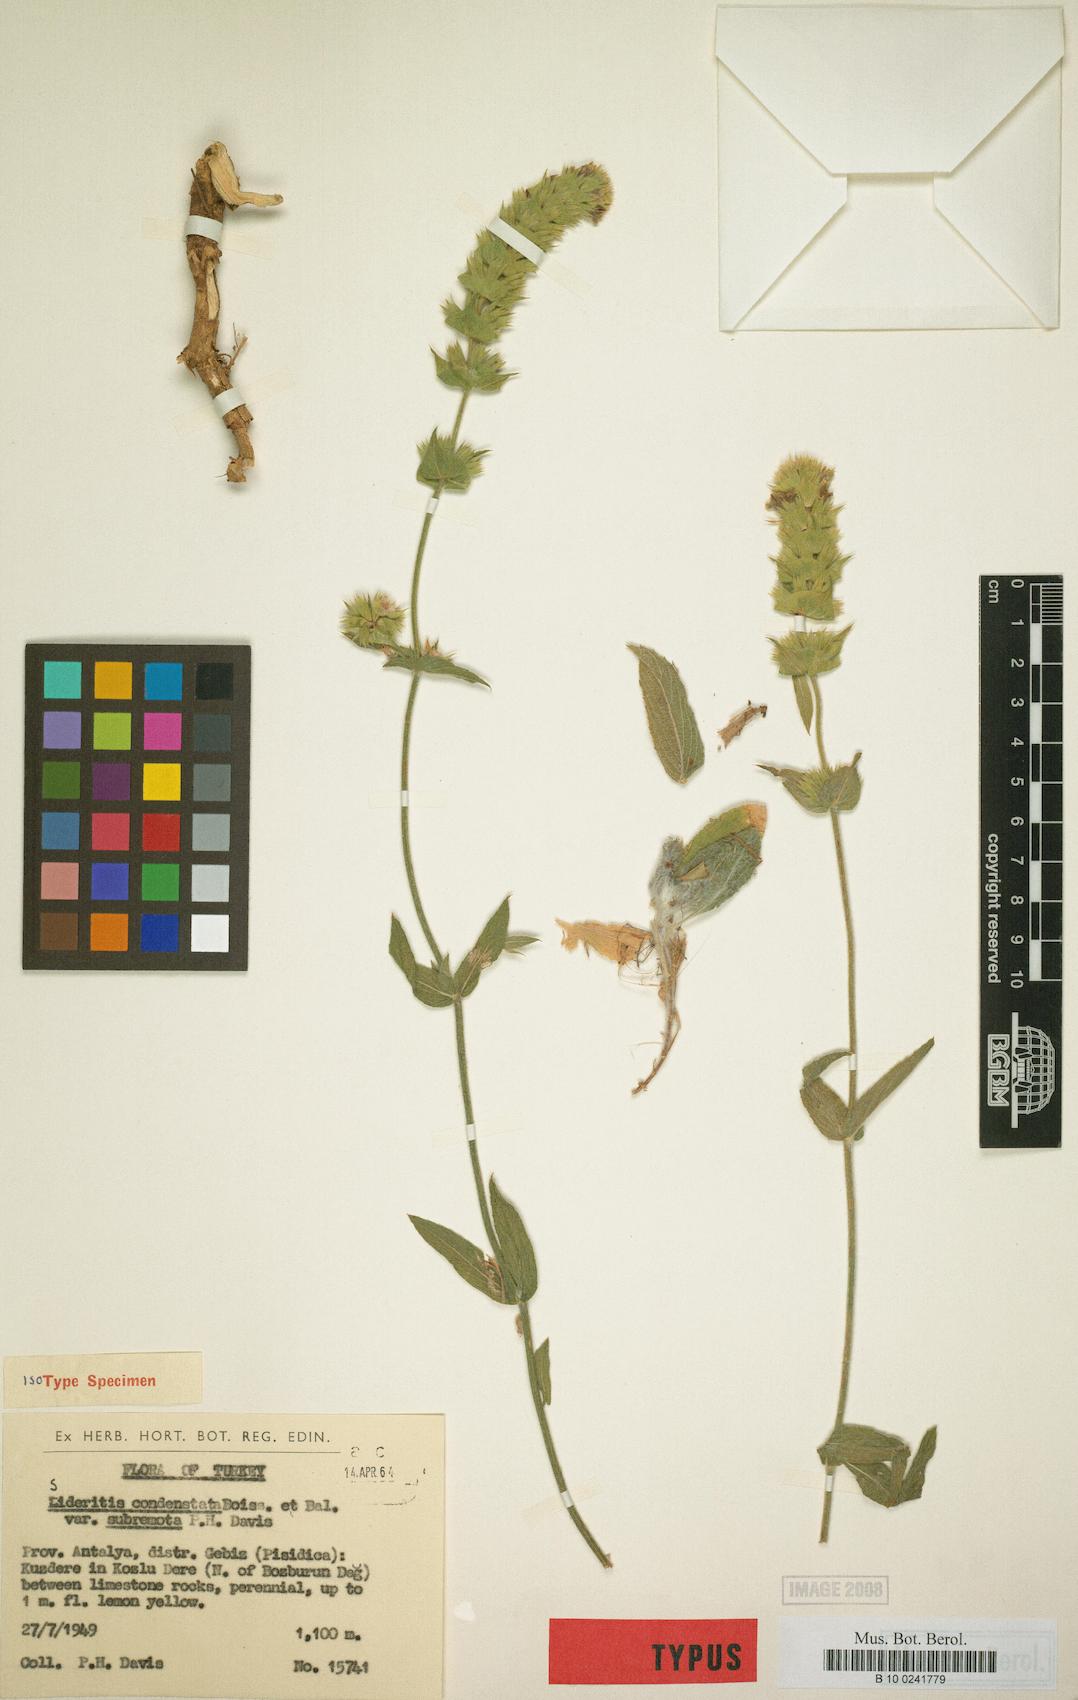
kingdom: Plantae
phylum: Tracheophyta
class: Magnoliopsida
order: Lamiales
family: Lamiaceae
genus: Sideritis
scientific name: Sideritis condensata
